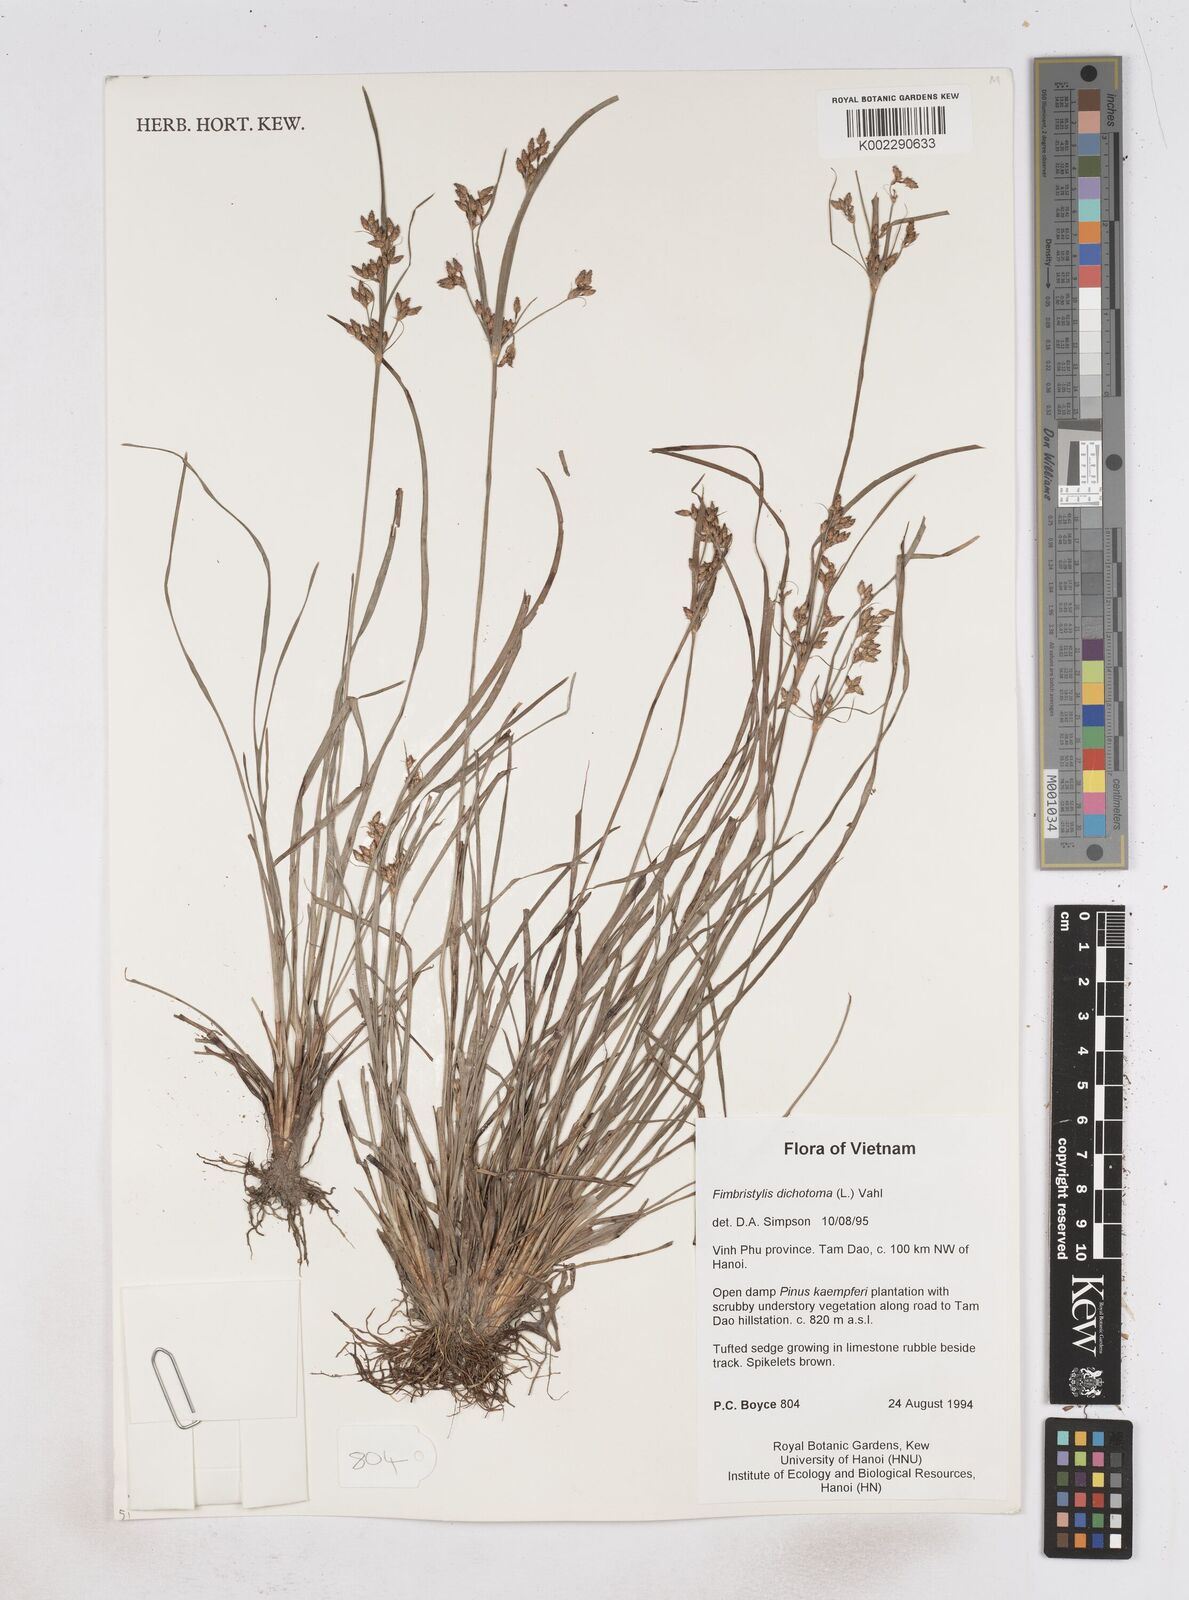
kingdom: Plantae
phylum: Tracheophyta
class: Liliopsida
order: Poales
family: Cyperaceae
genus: Fimbristylis
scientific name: Fimbristylis dichotoma
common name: Forked fimbry
